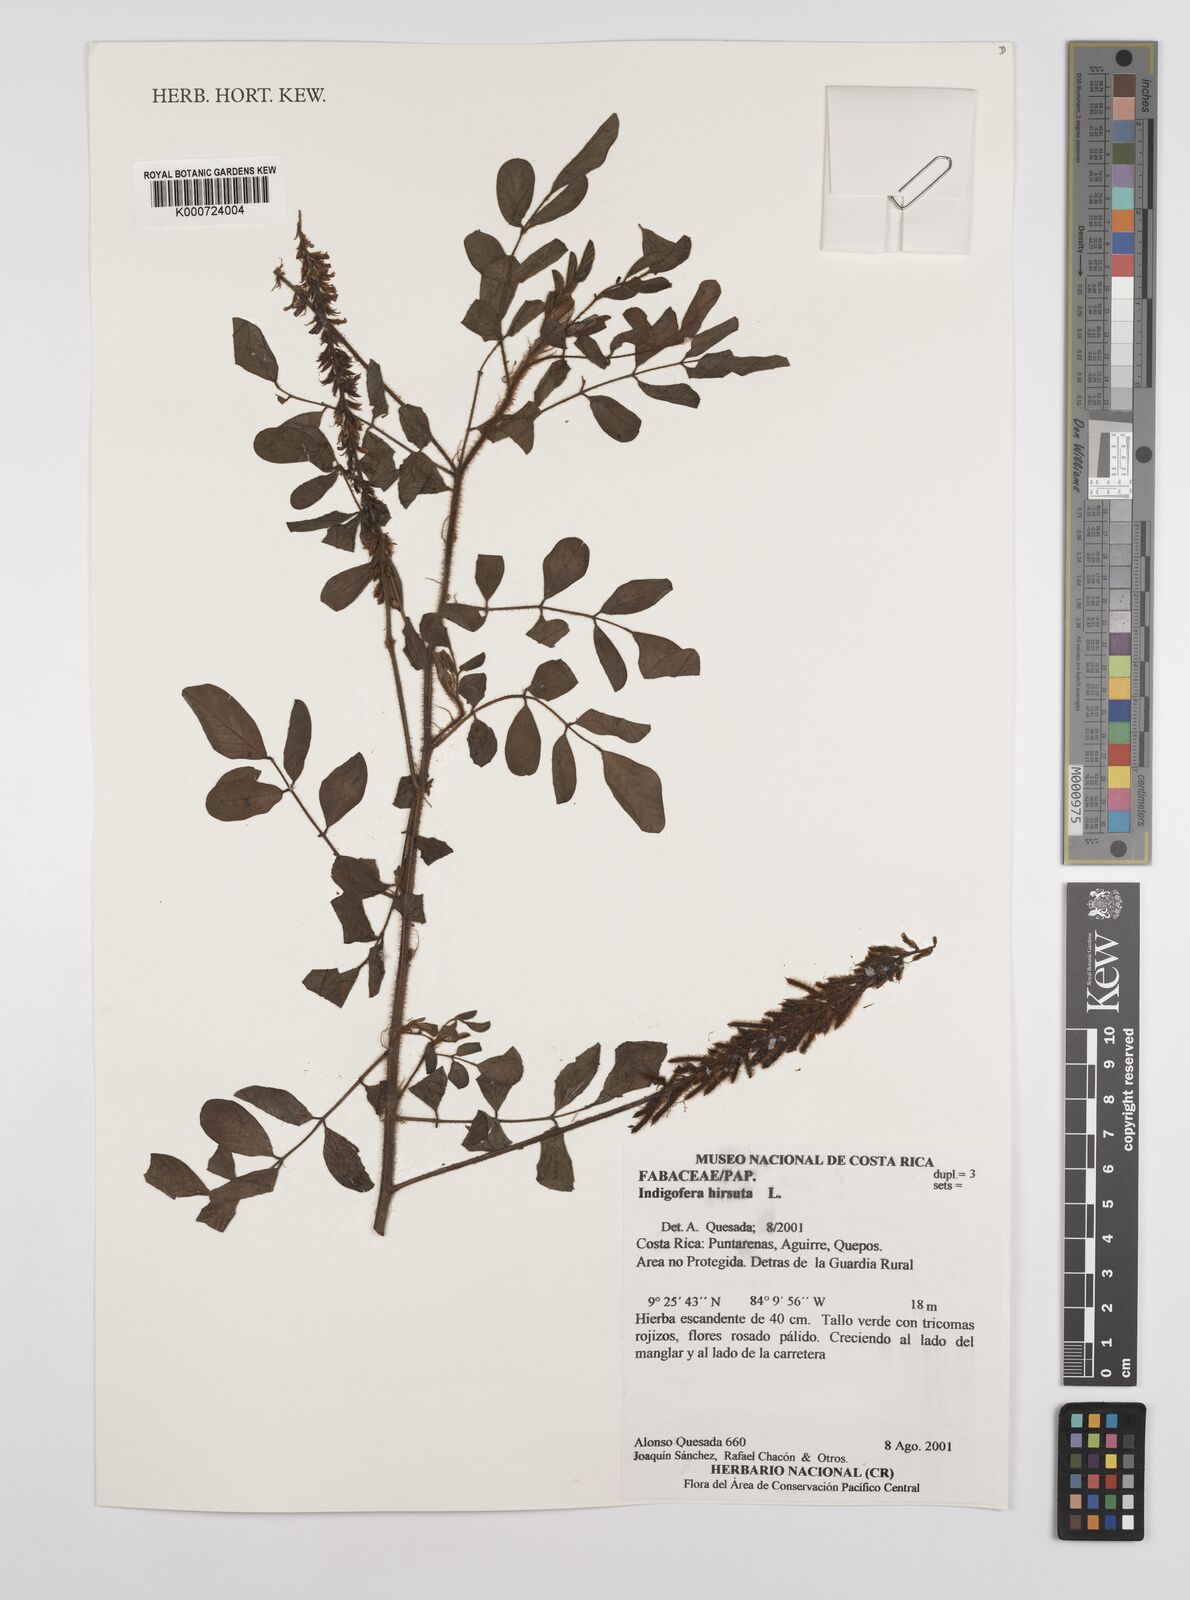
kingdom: Plantae
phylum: Tracheophyta
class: Magnoliopsida
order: Fabales
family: Fabaceae
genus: Indigofera
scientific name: Indigofera hirsuta
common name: Hairy indigo
